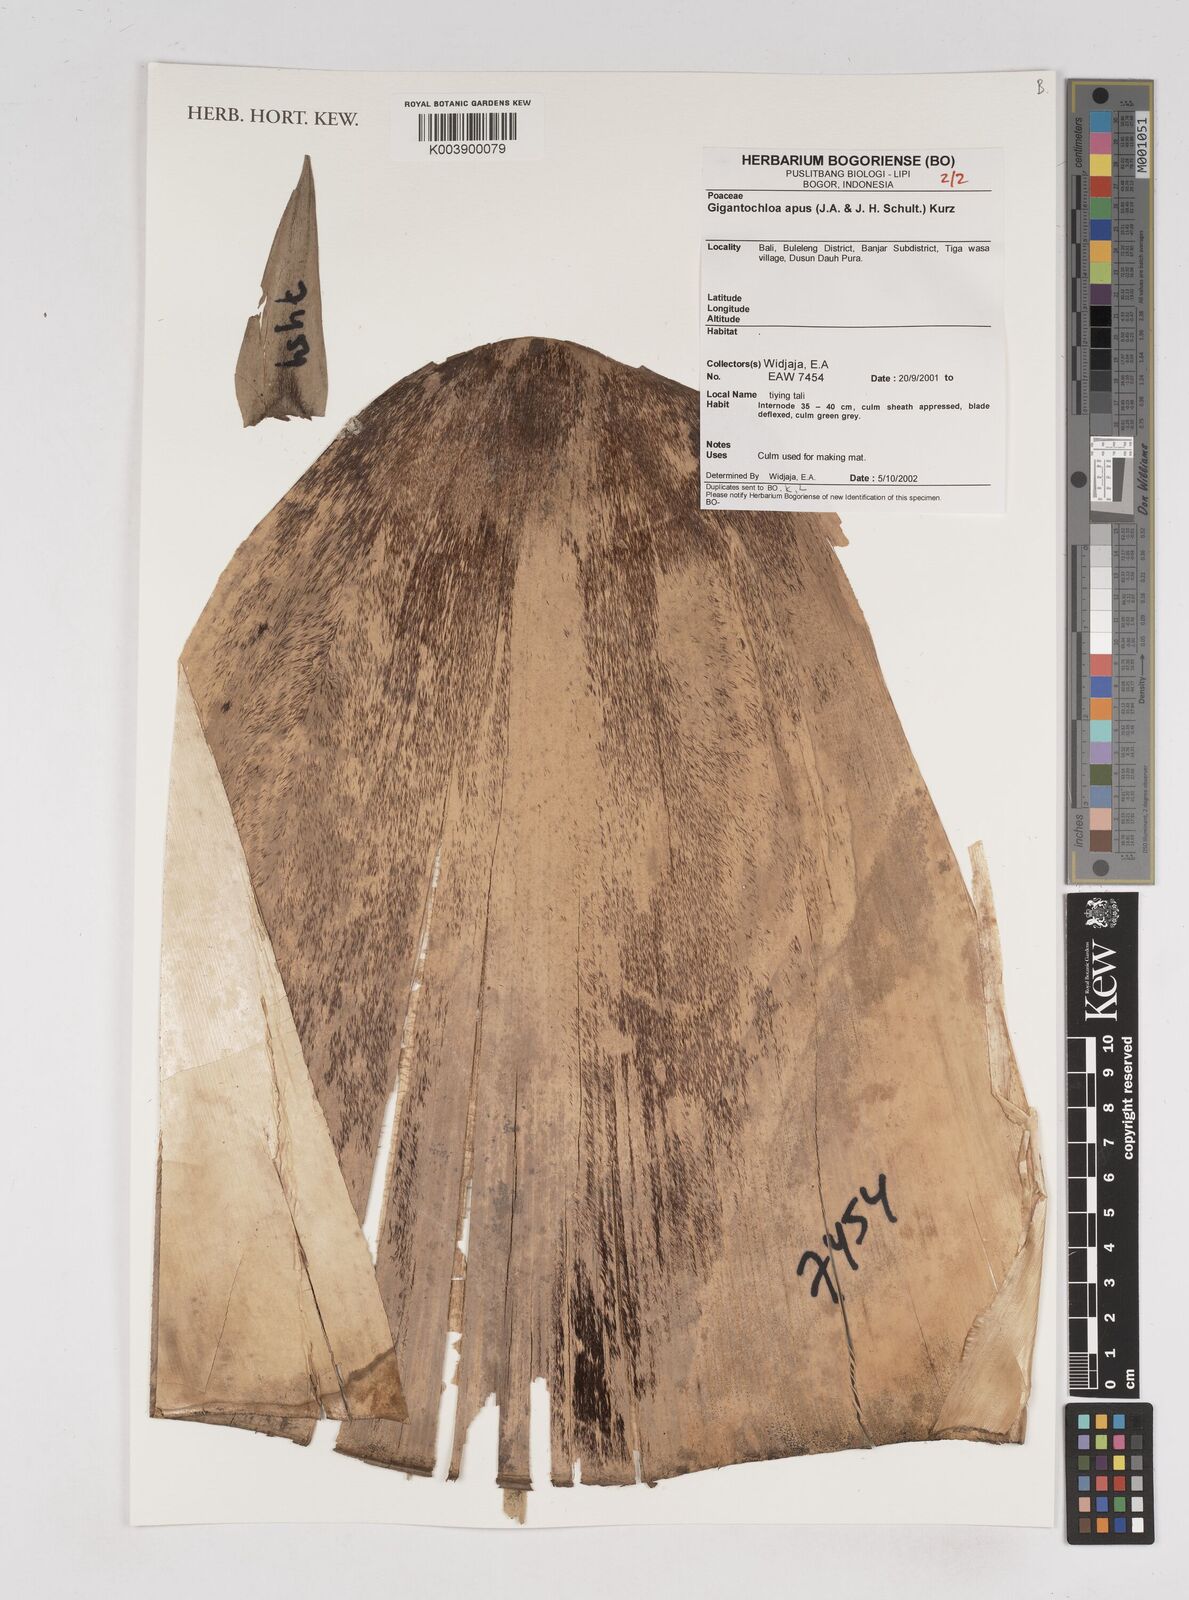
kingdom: Plantae
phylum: Tracheophyta
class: Liliopsida
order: Poales
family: Poaceae
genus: Gigantochloa
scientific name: Gigantochloa apus
